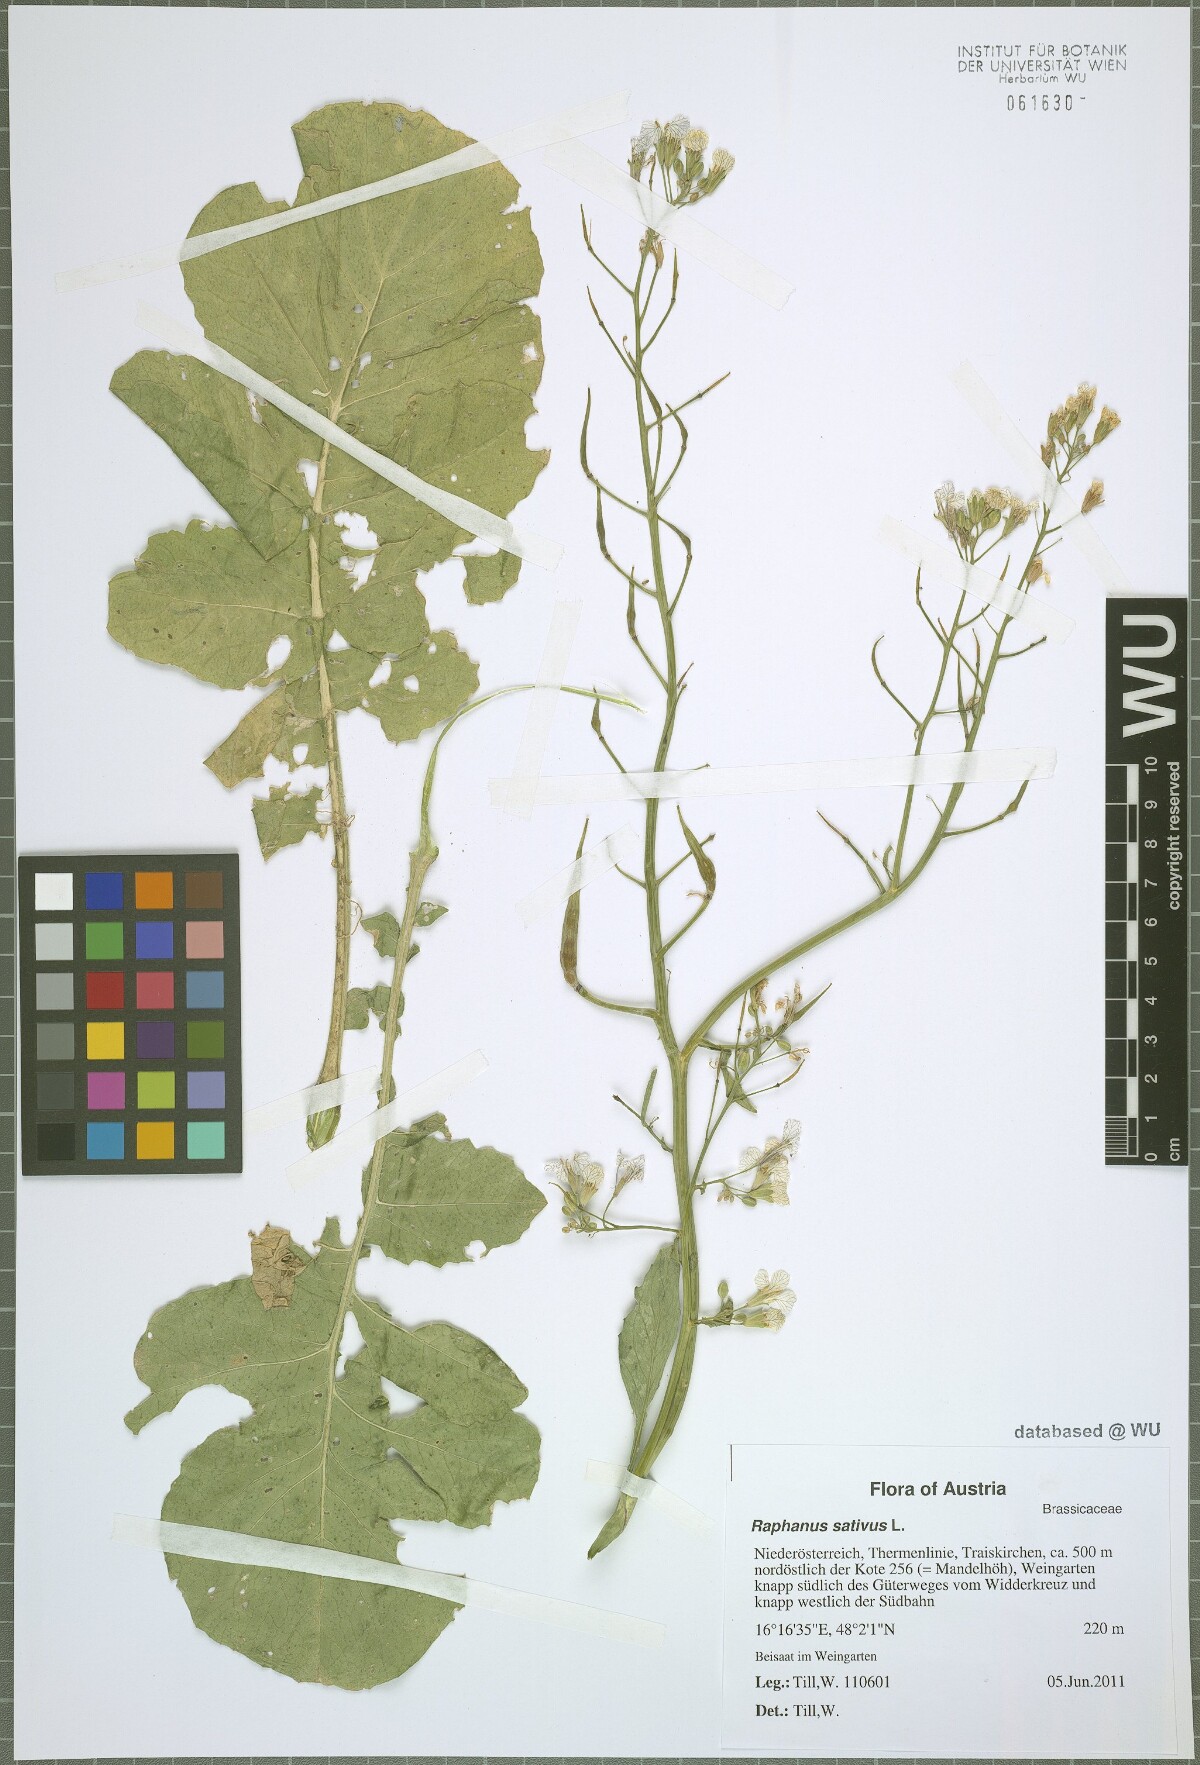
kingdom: Plantae
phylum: Tracheophyta
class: Magnoliopsida
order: Brassicales
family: Brassicaceae
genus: Raphanus
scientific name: Raphanus sativus
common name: Cultivated radish
